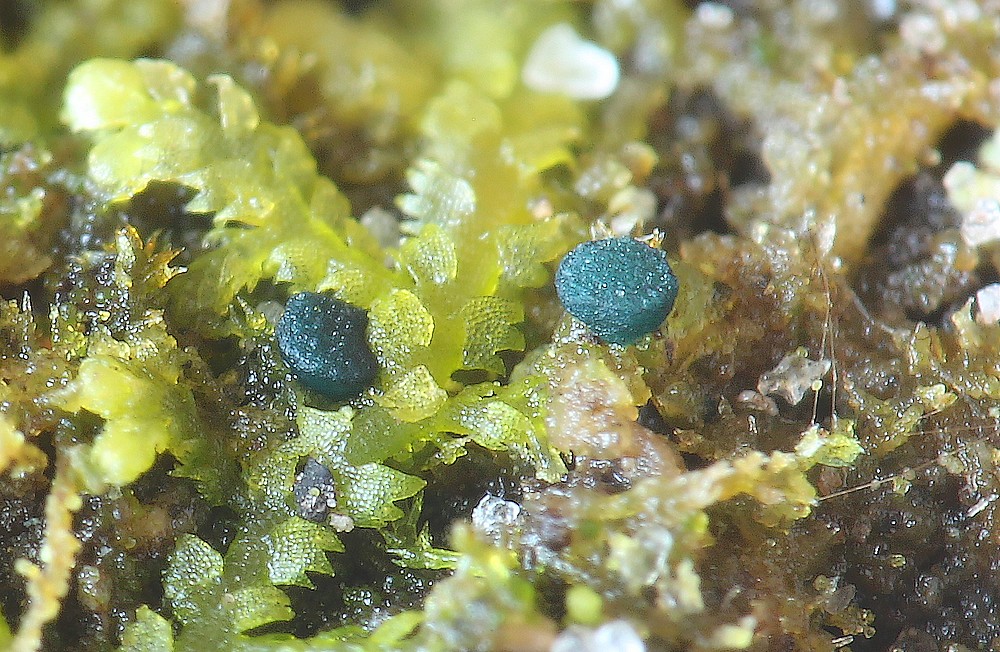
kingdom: Fungi
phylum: Ascomycota
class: Leotiomycetes
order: Leotiales
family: Mniaeciaceae
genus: Mniaecia
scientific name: Mniaecia jungermanniae
